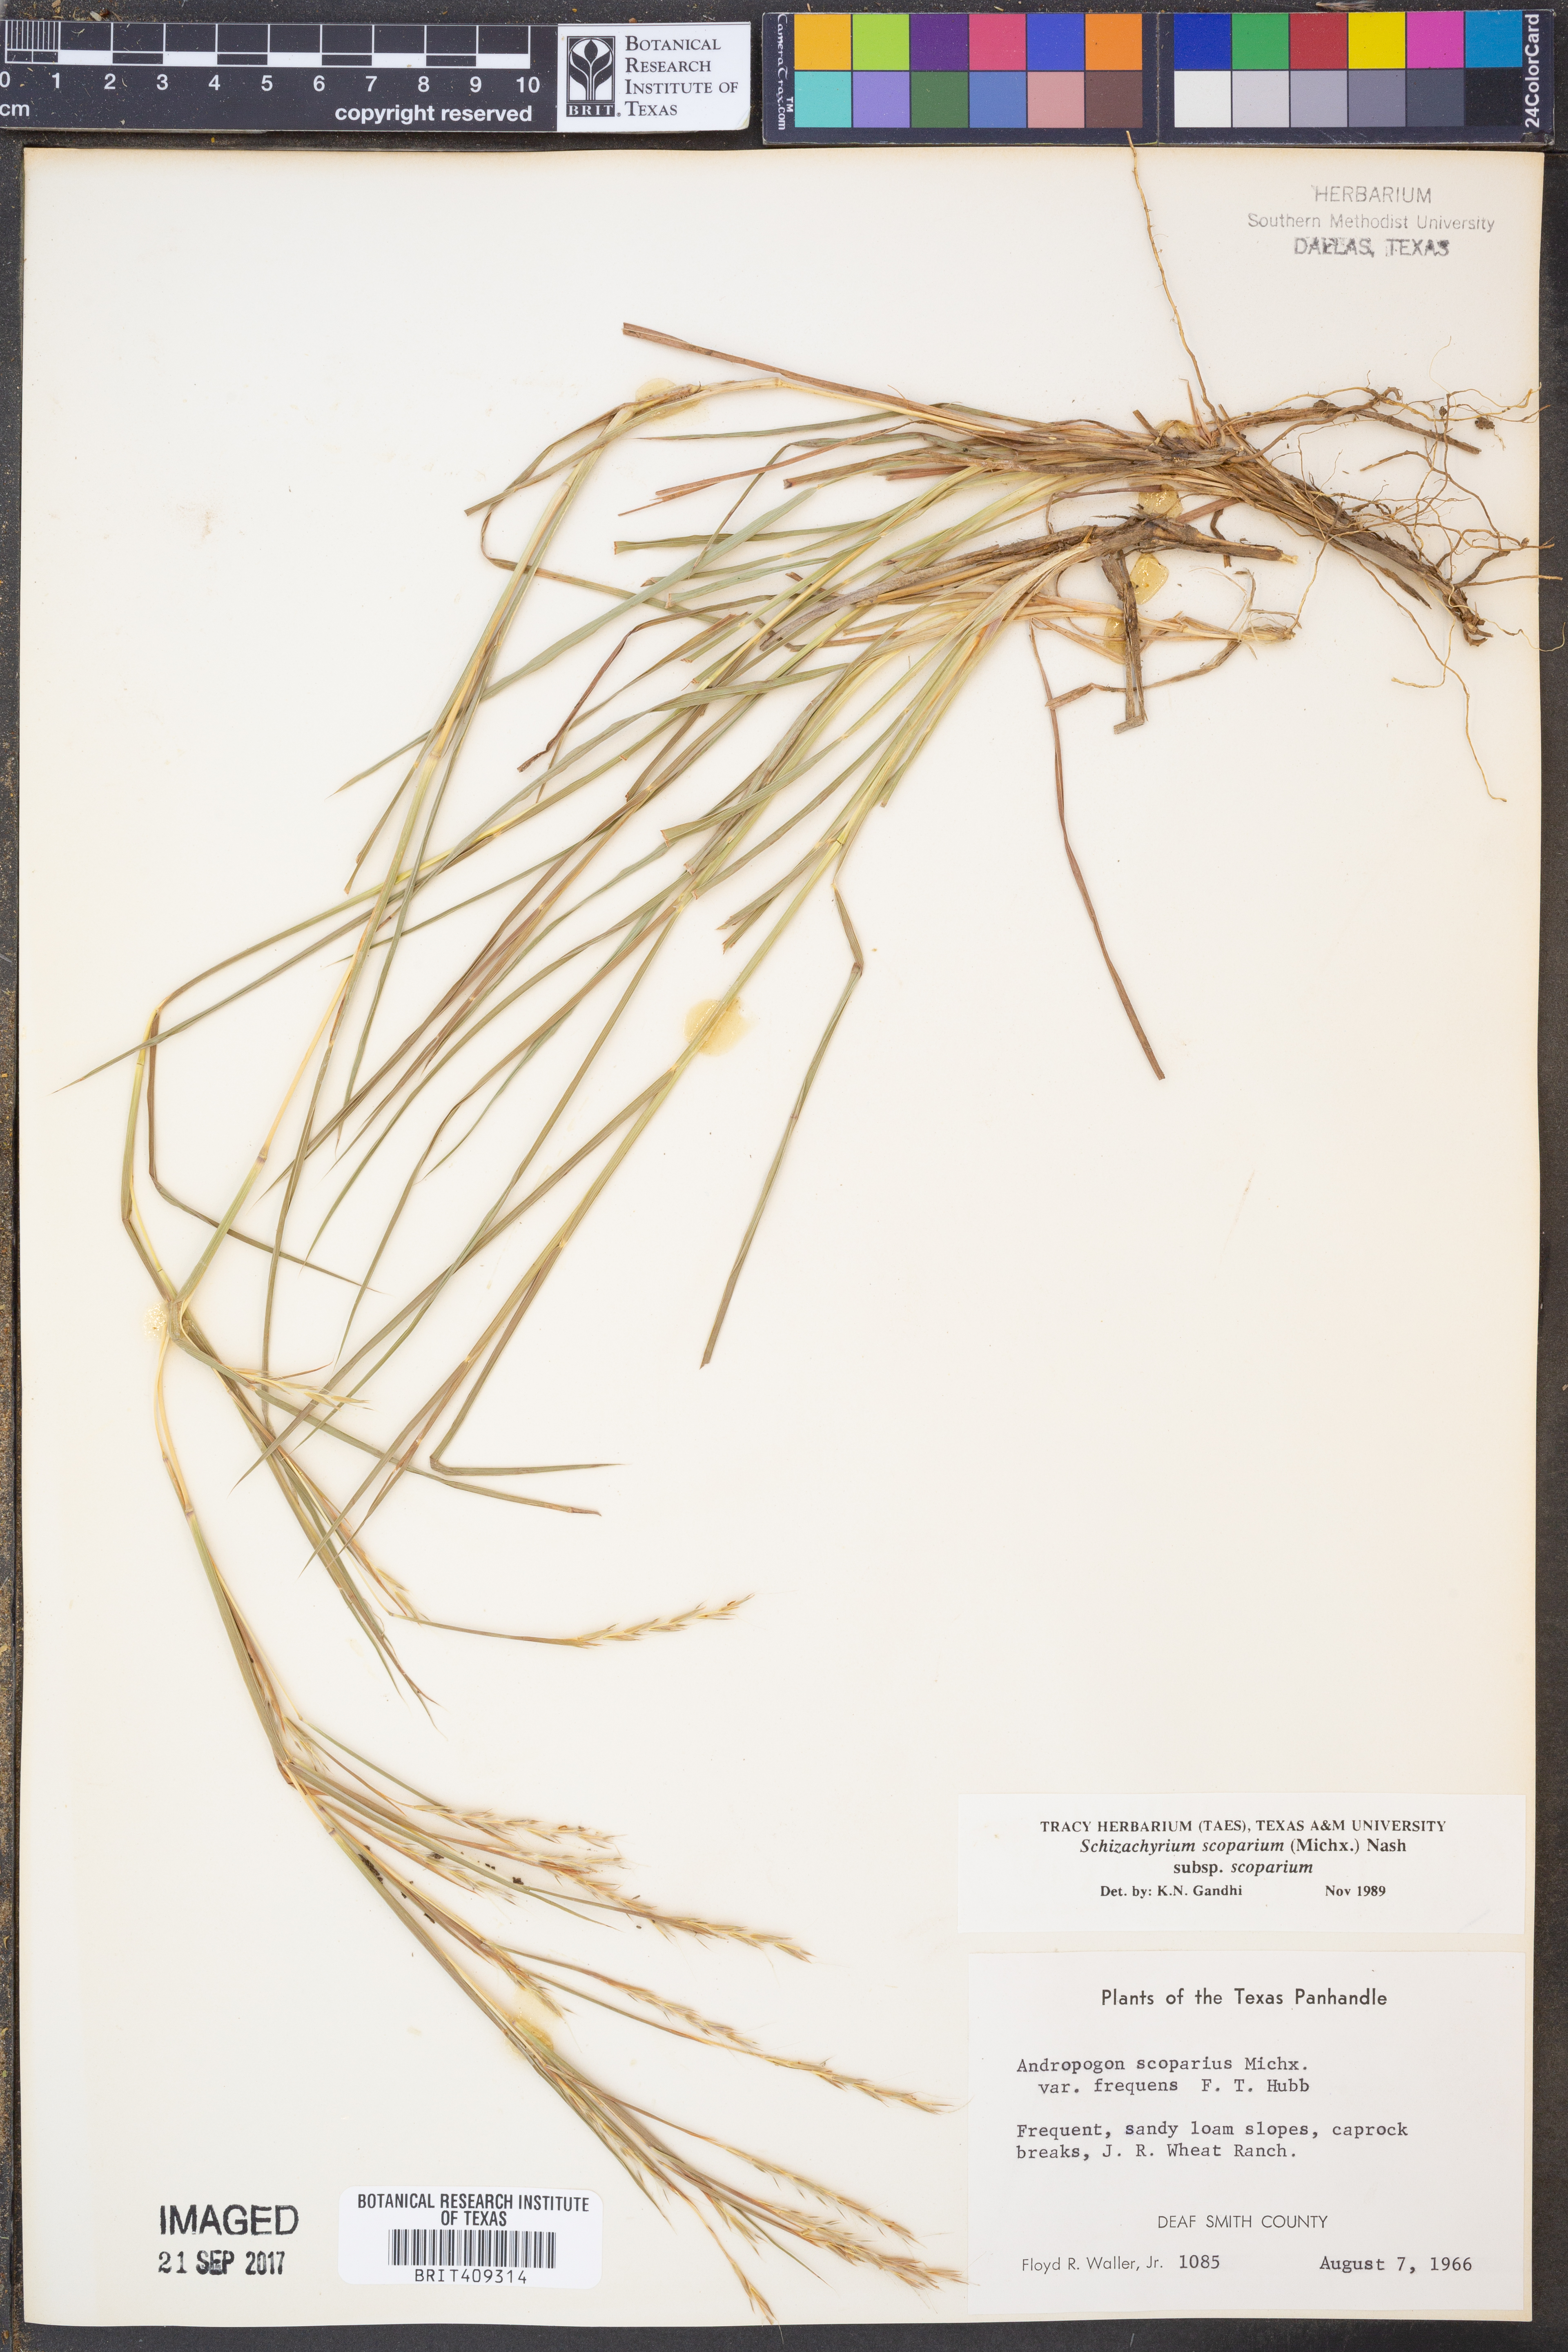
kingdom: Plantae
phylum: Tracheophyta
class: Liliopsida
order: Poales
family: Poaceae
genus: Schizachyrium
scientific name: Schizachyrium scoparium
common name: Little bluestem
